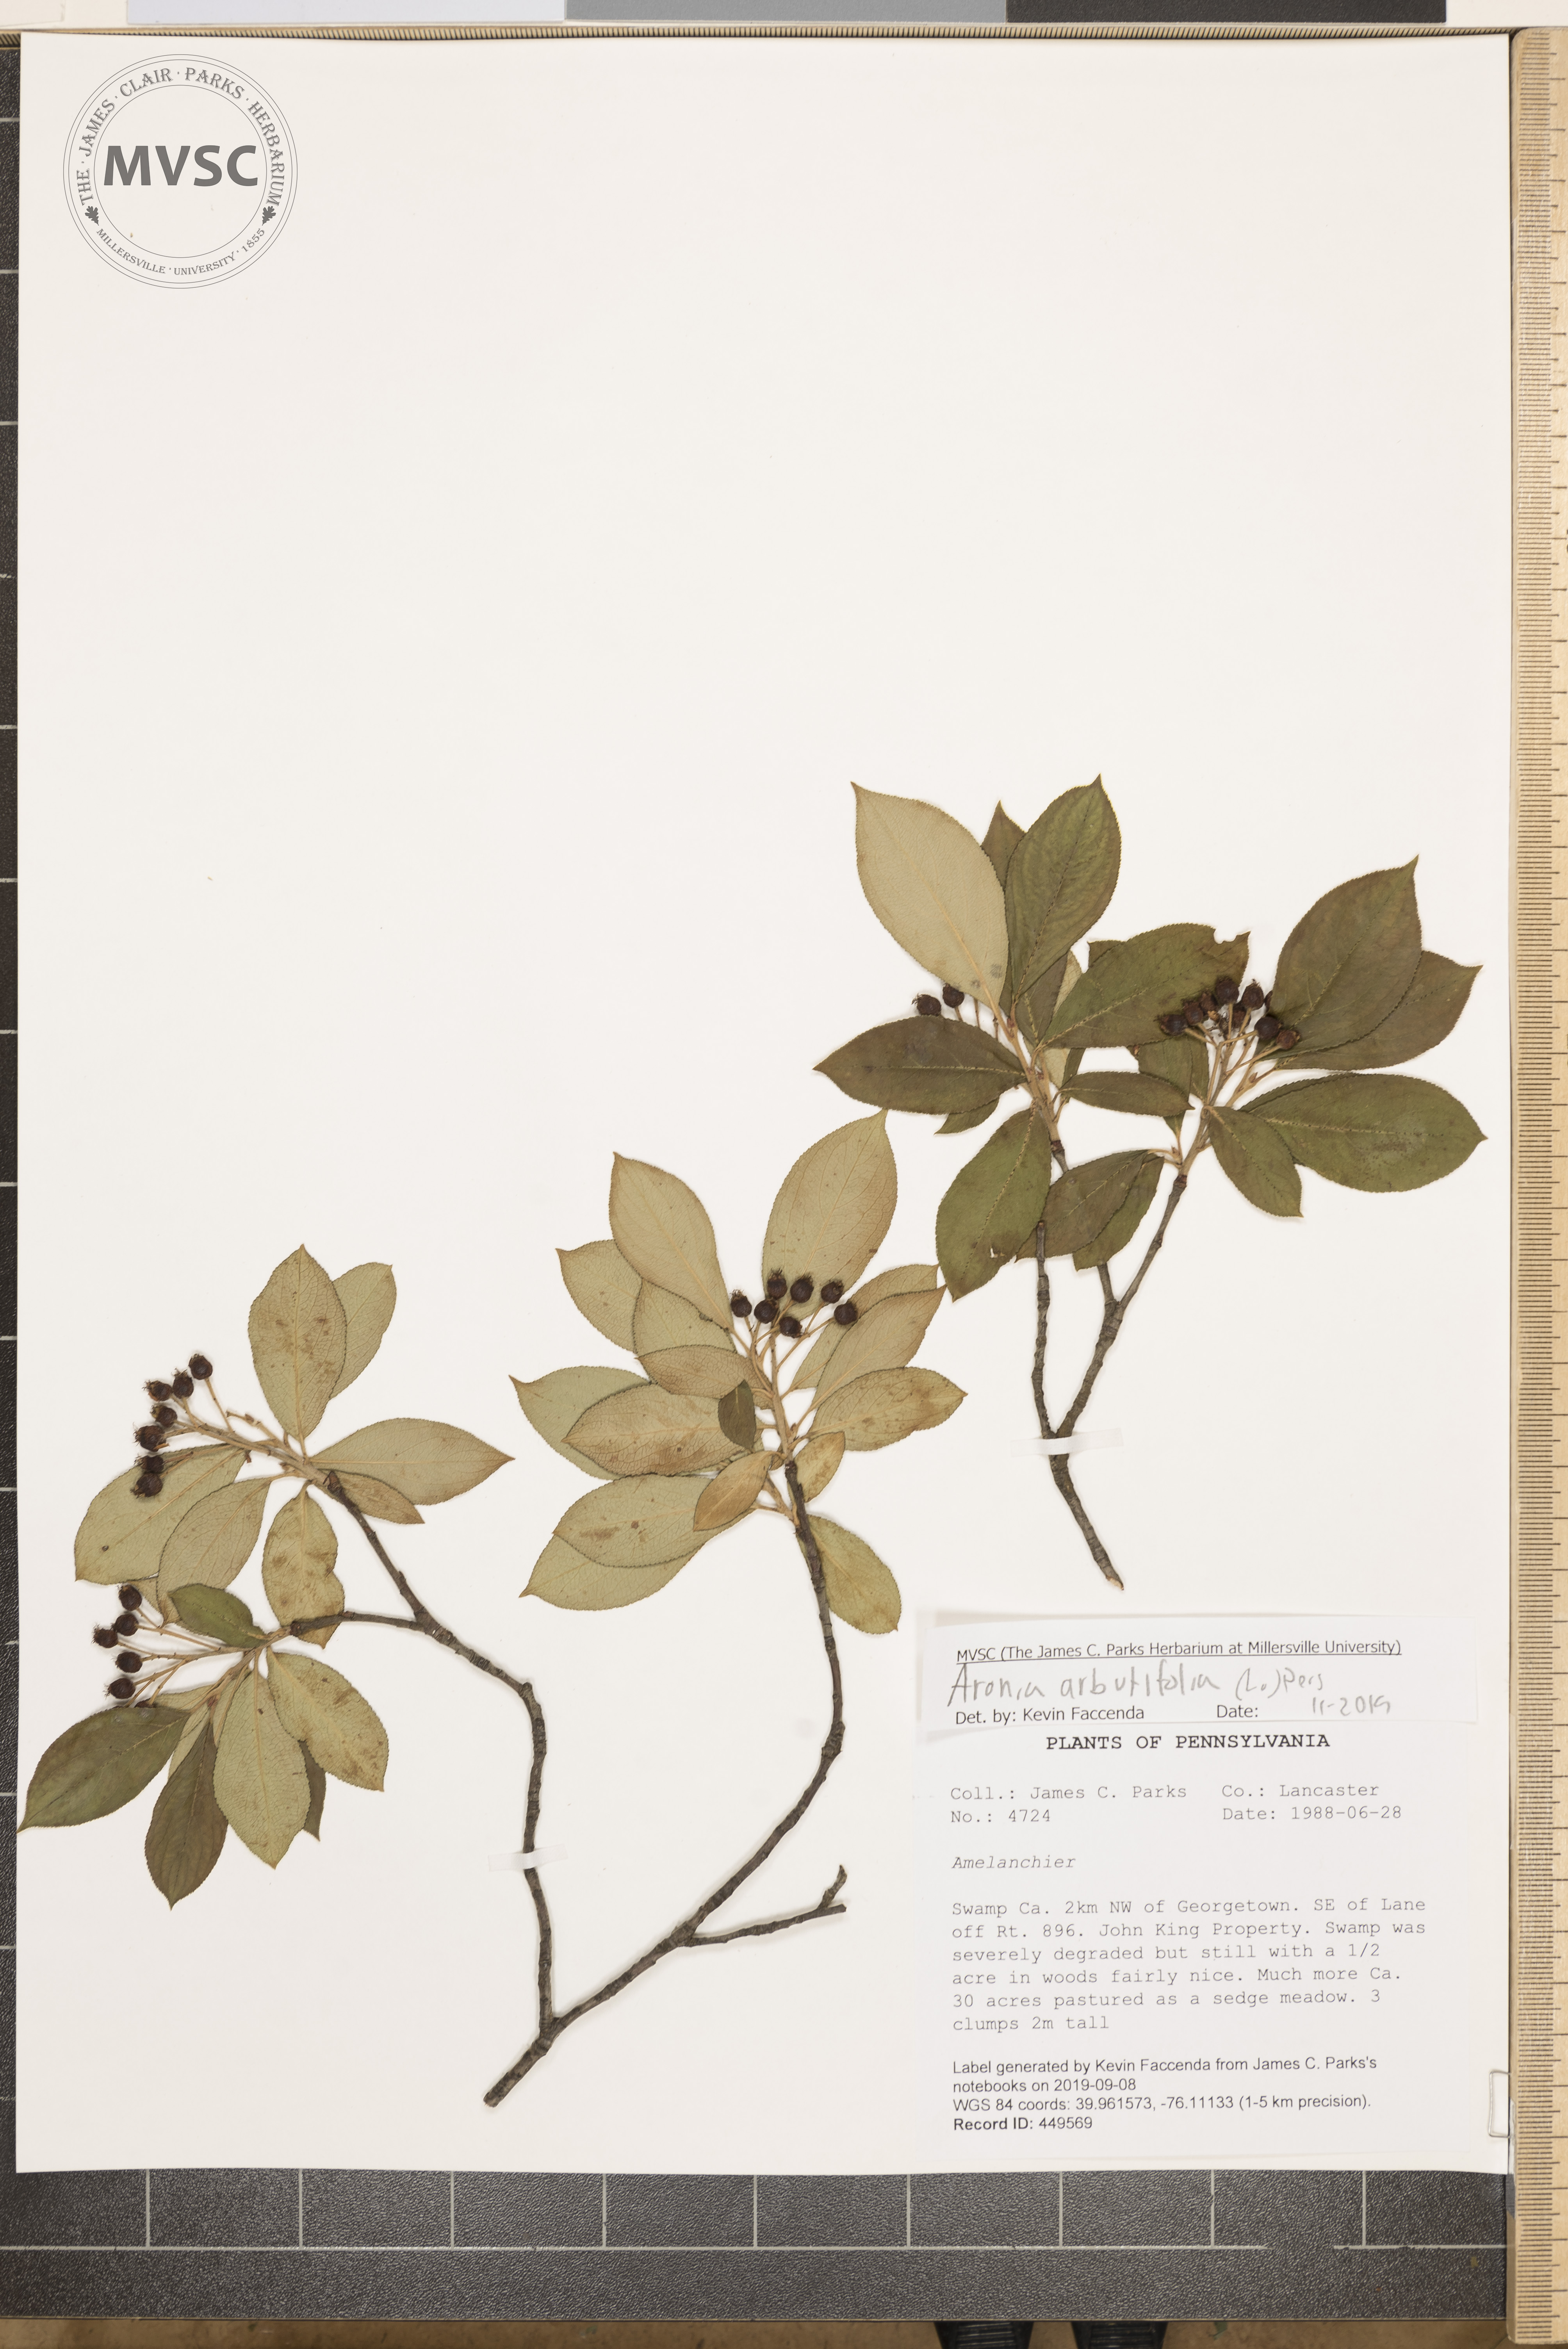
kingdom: Plantae
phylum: Tracheophyta
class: Magnoliopsida
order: Rosales
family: Rosaceae
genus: Aronia
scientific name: Aronia arbutifolia
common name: Red chokeberry
